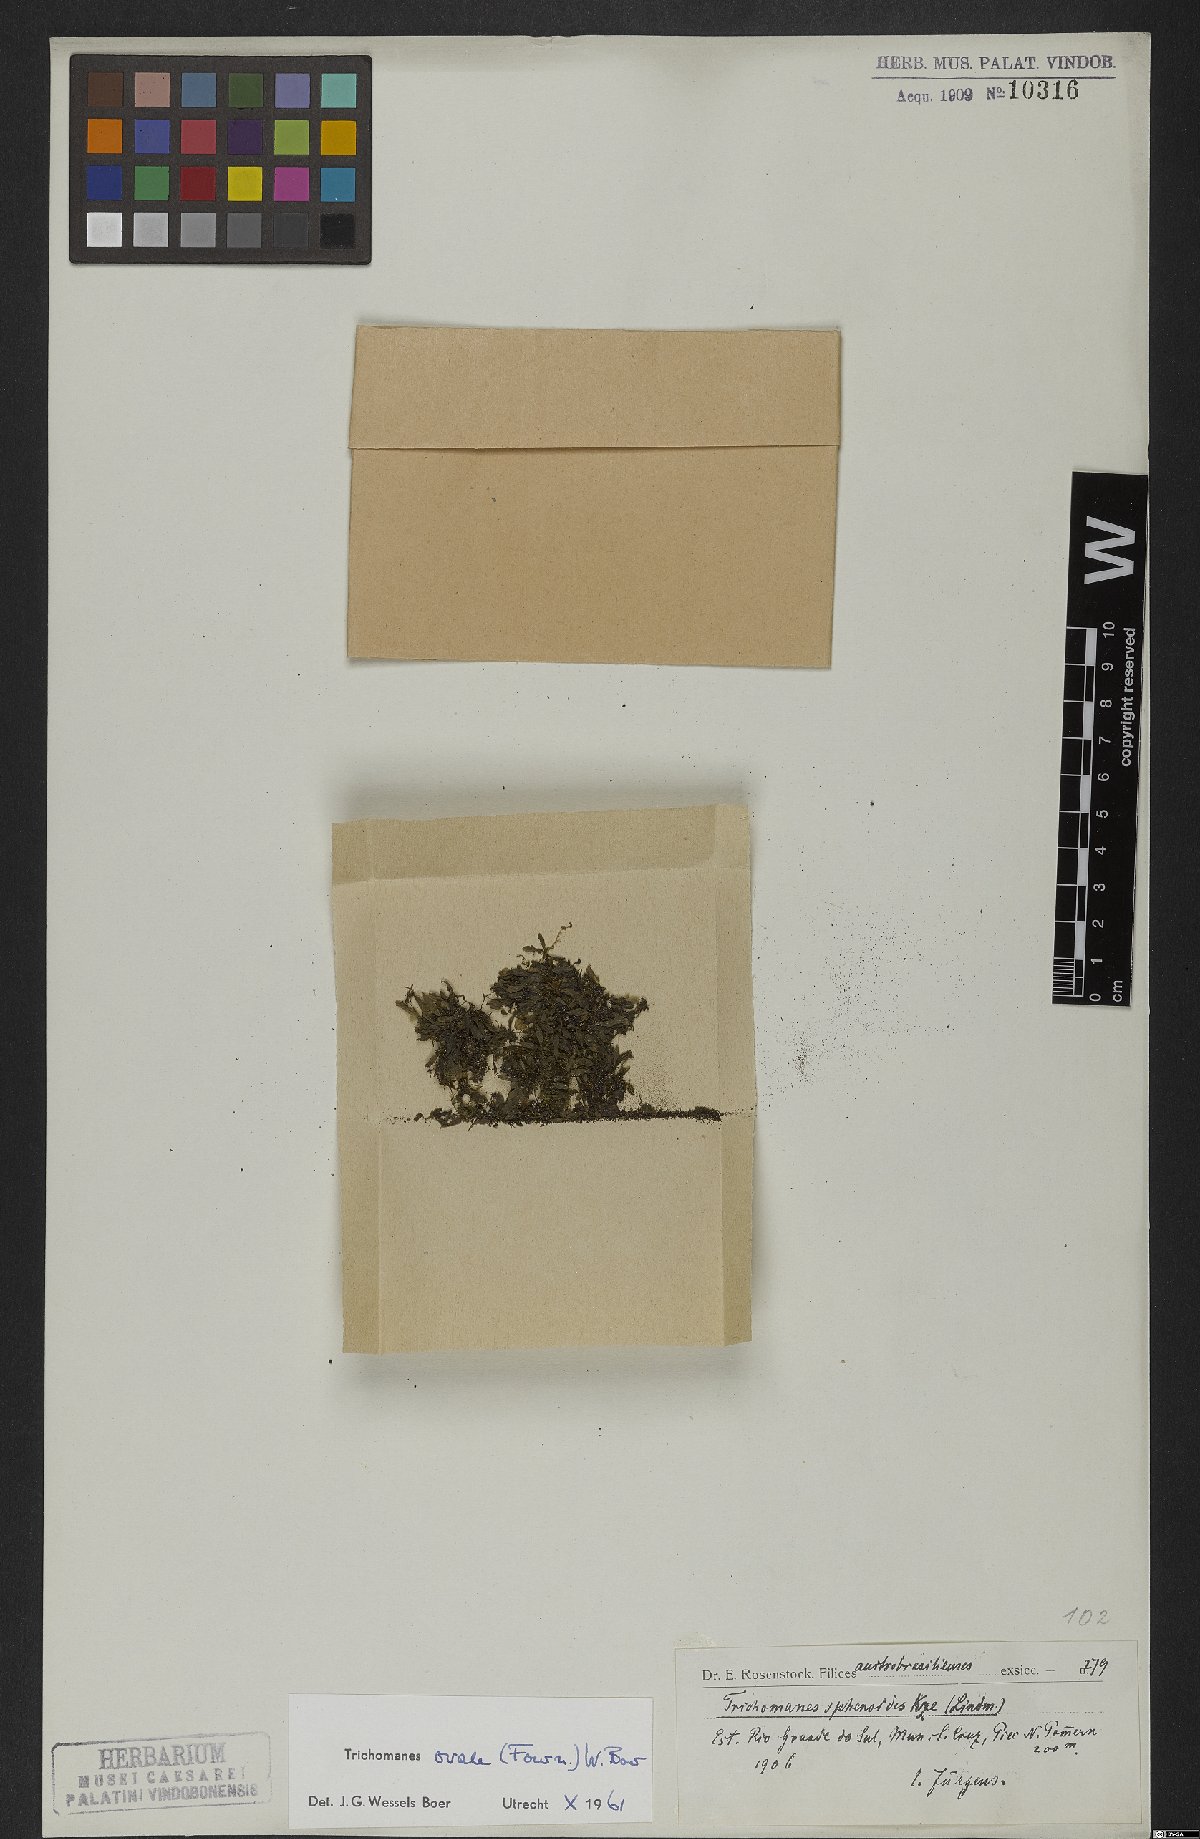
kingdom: Plantae
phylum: Tracheophyta
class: Polypodiopsida
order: Hymenophyllales
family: Hymenophyllaceae
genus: Didymoglossum
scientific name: Didymoglossum ovale
